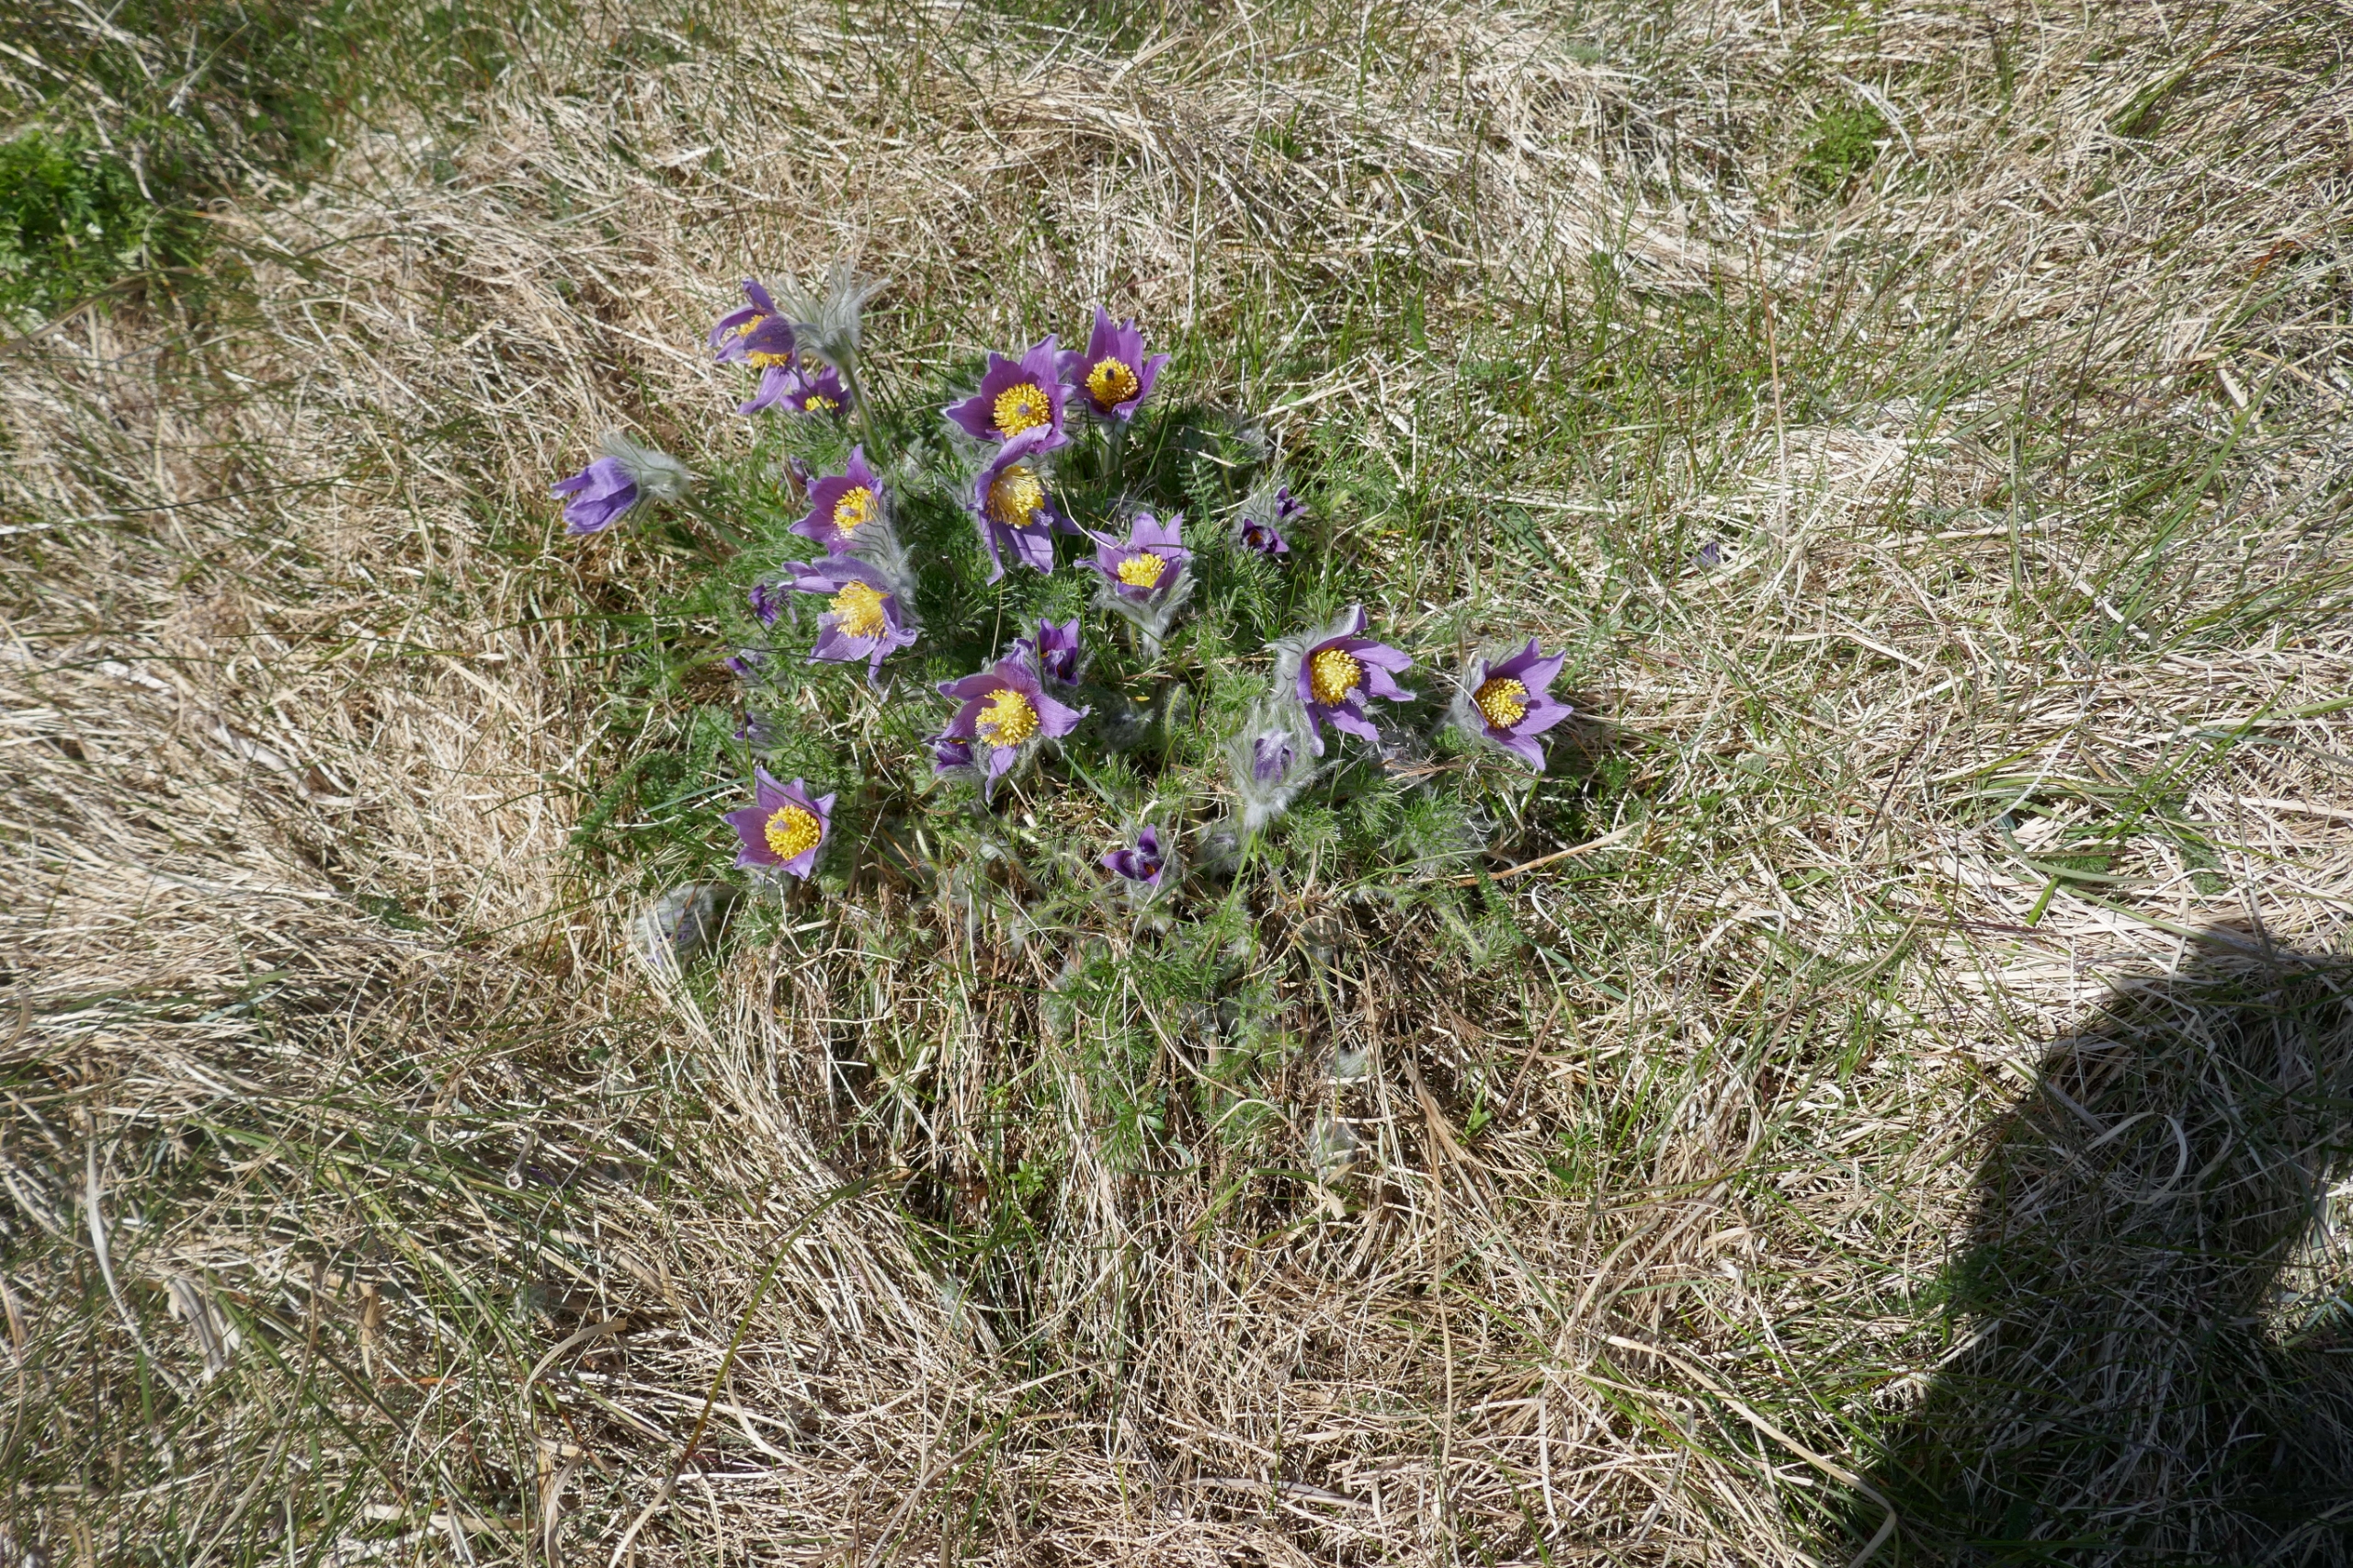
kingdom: Plantae
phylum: Tracheophyta
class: Magnoliopsida
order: Ranunculales
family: Ranunculaceae
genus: Pulsatilla
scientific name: Pulsatilla vulgaris
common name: Opret kobjælde
